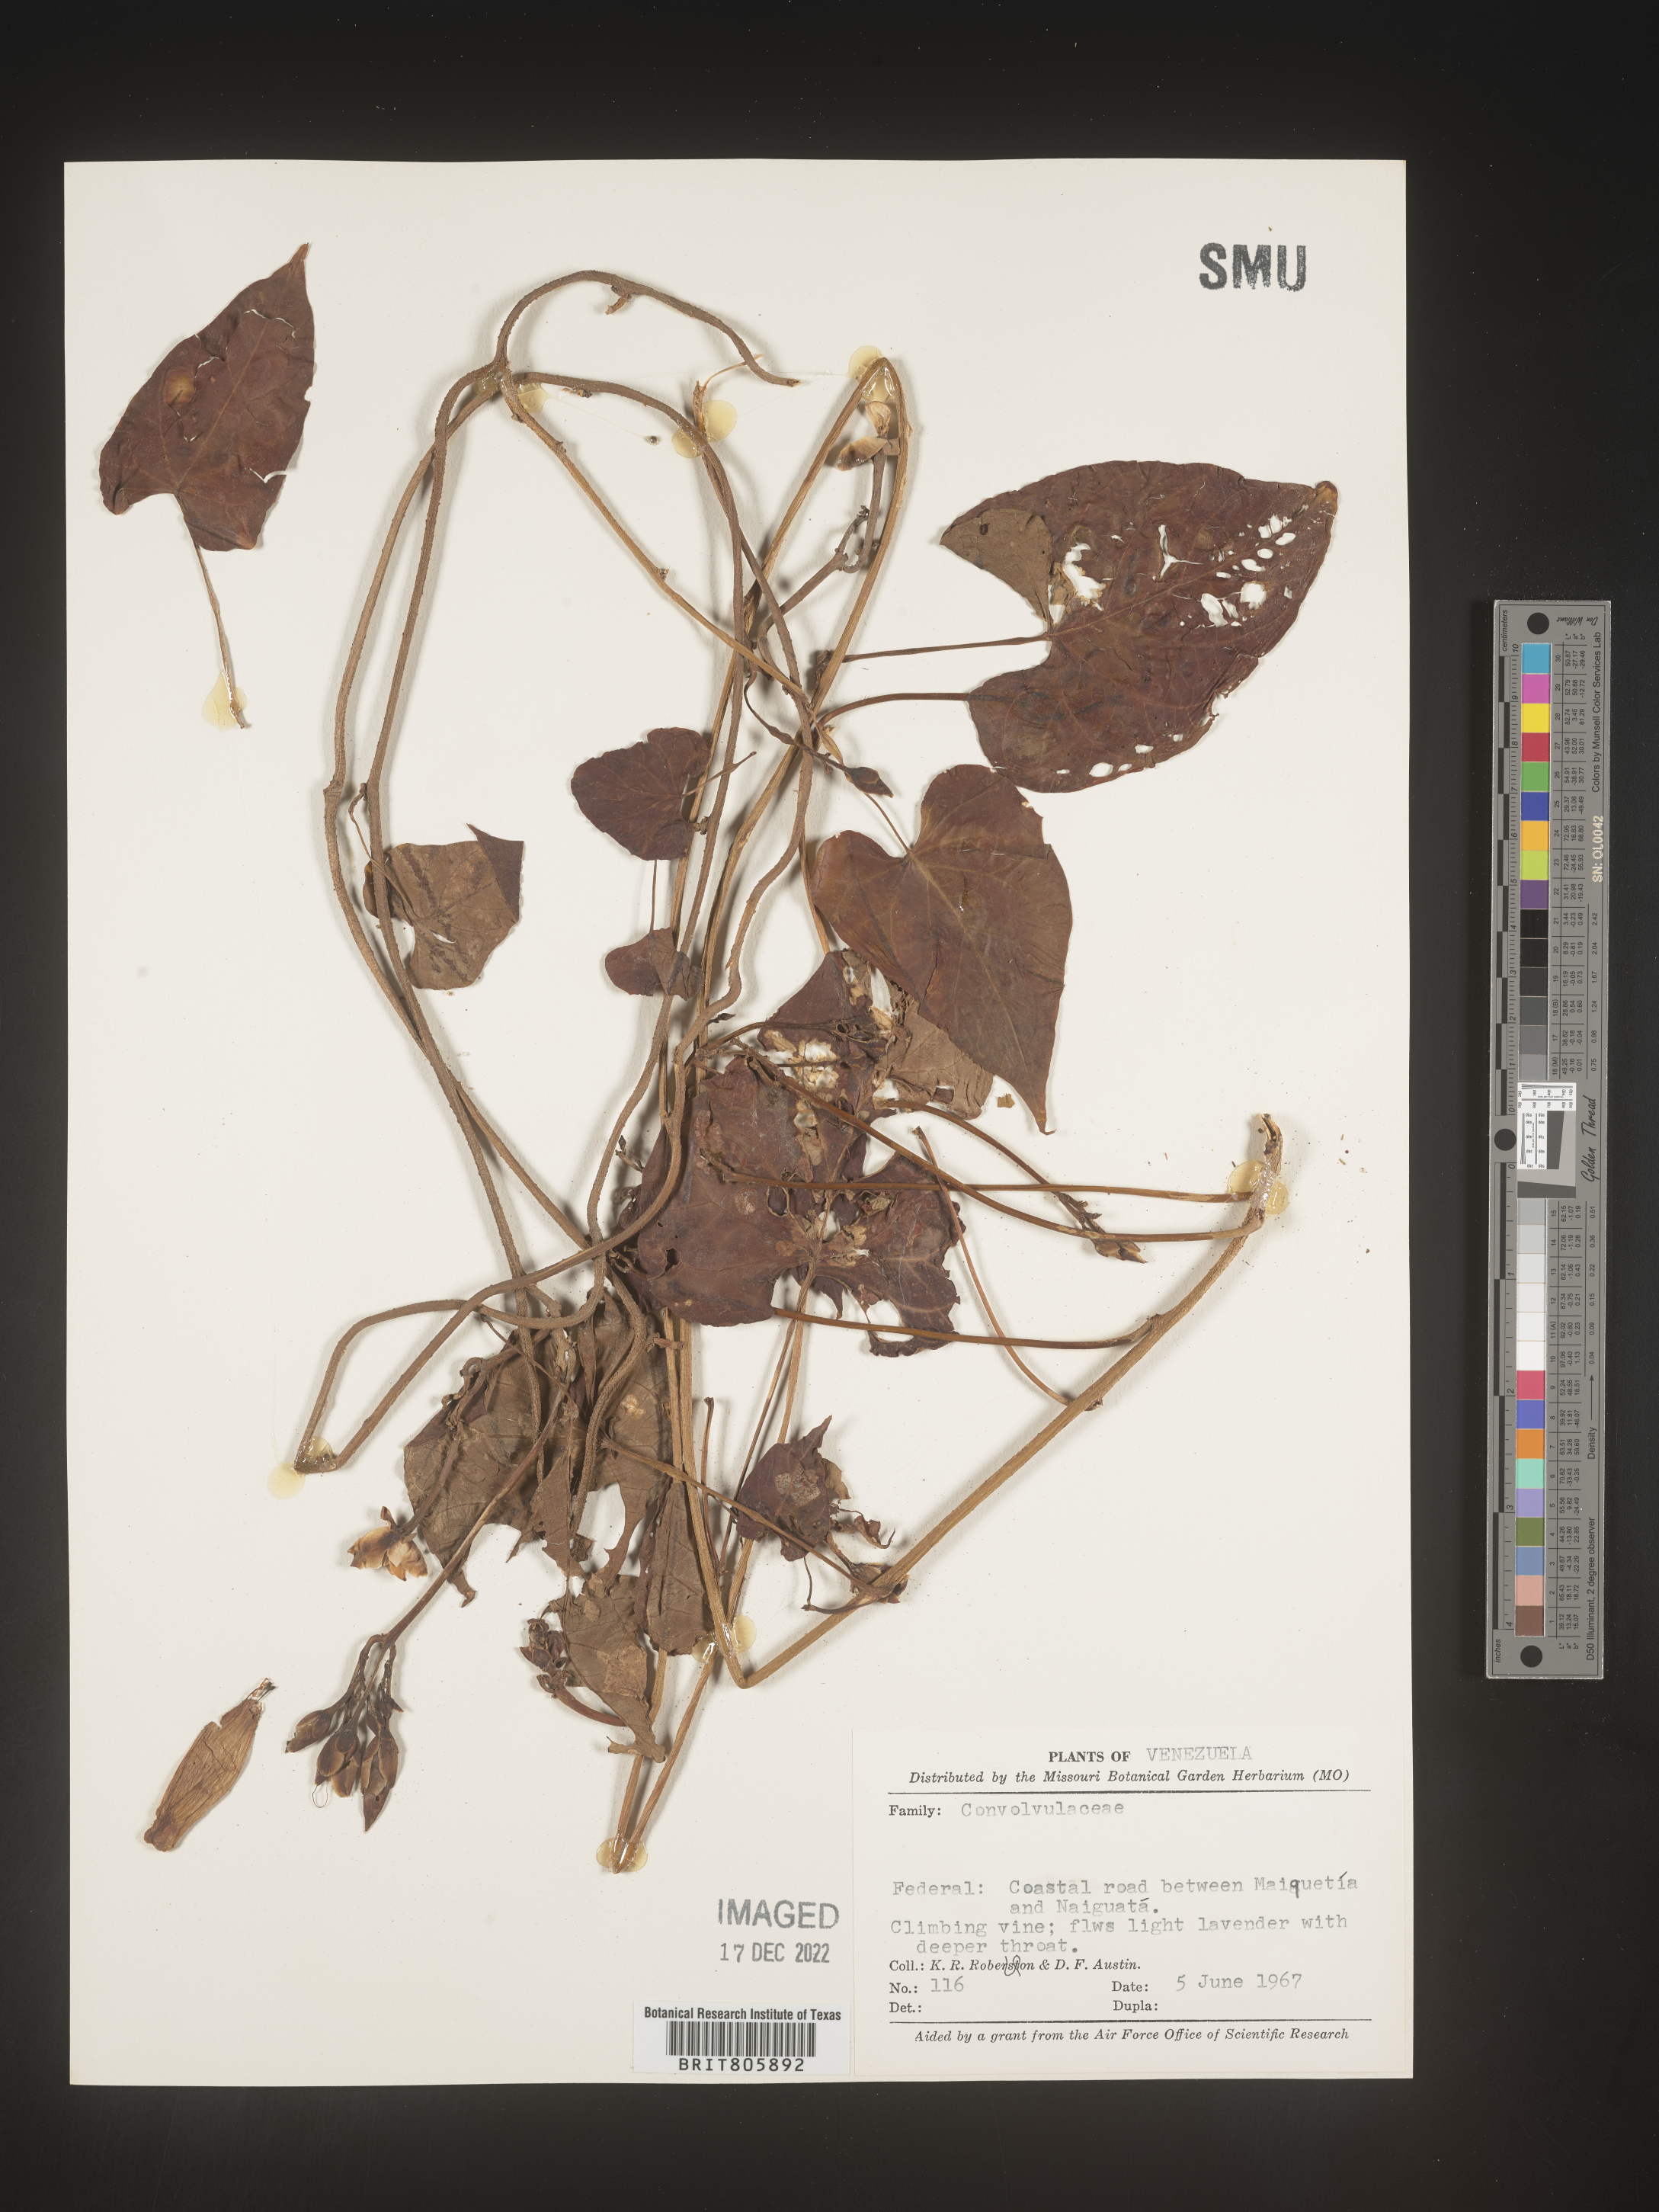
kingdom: Animalia
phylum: Mollusca
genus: Turbina
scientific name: Turbina
